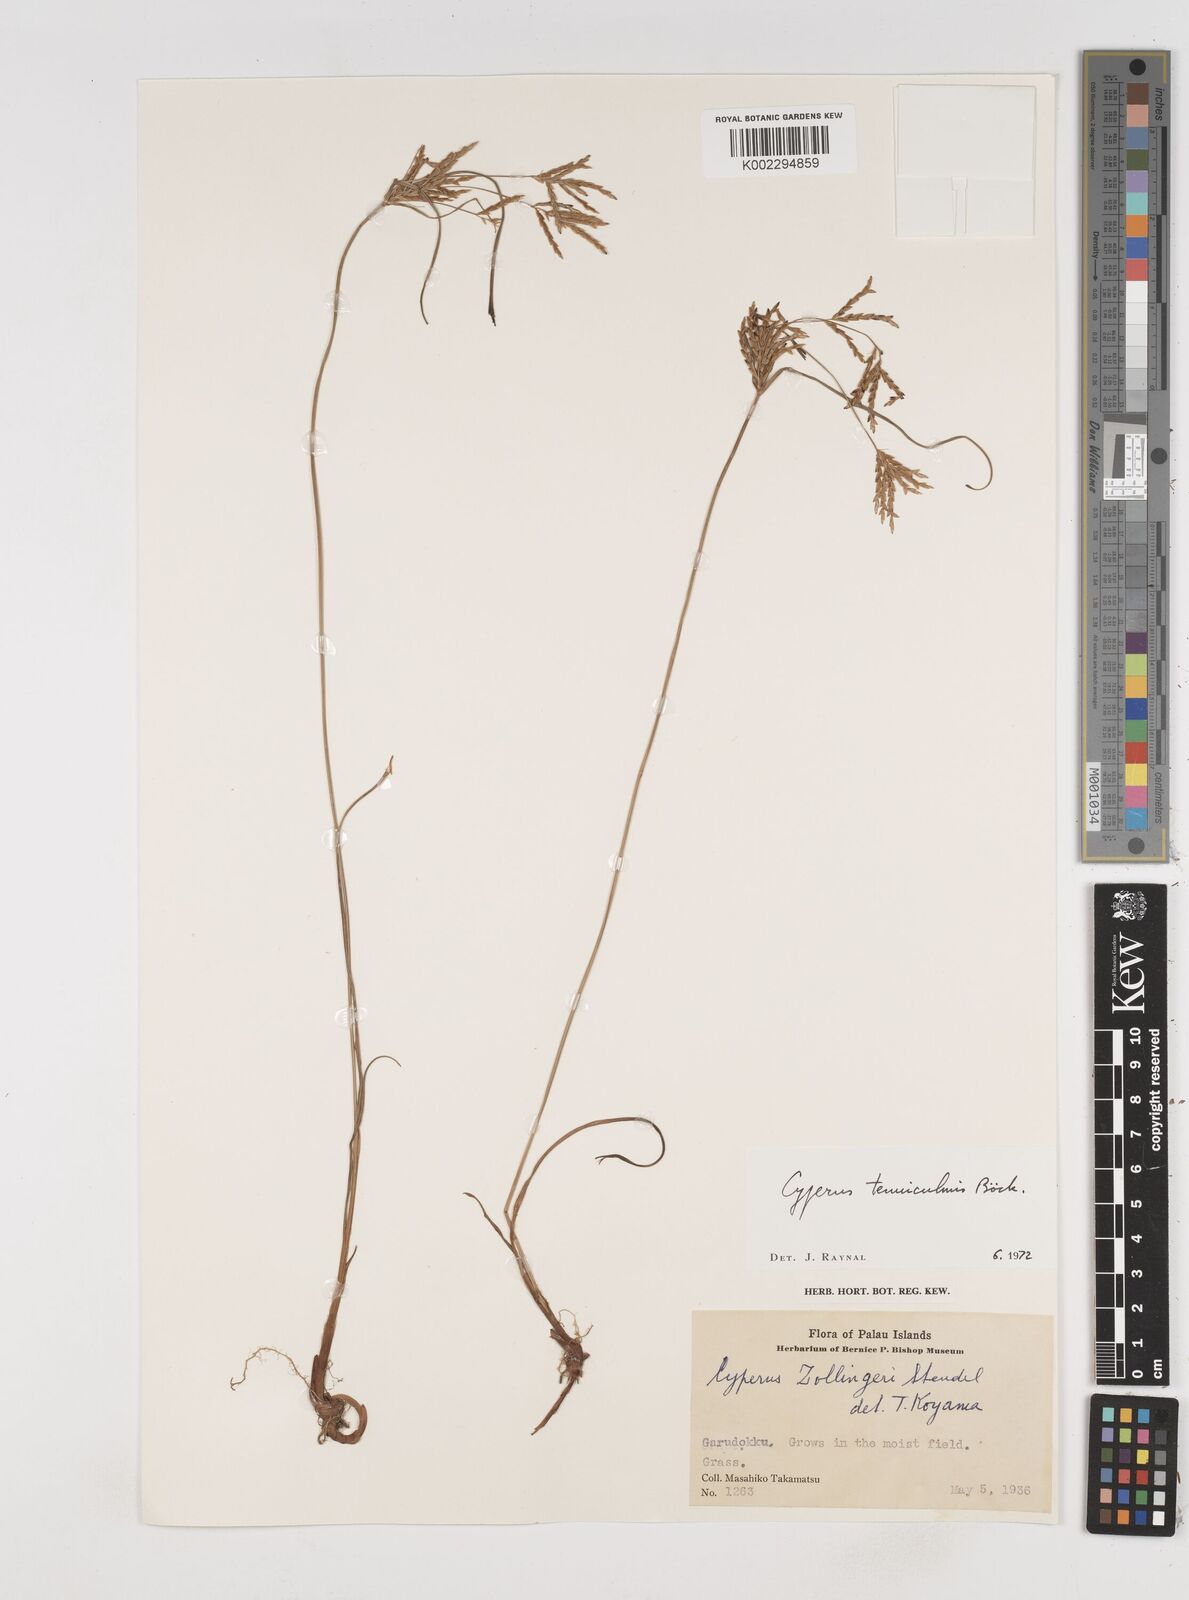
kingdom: Plantae
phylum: Tracheophyta
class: Liliopsida
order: Poales
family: Cyperaceae
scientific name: Cyperaceae
